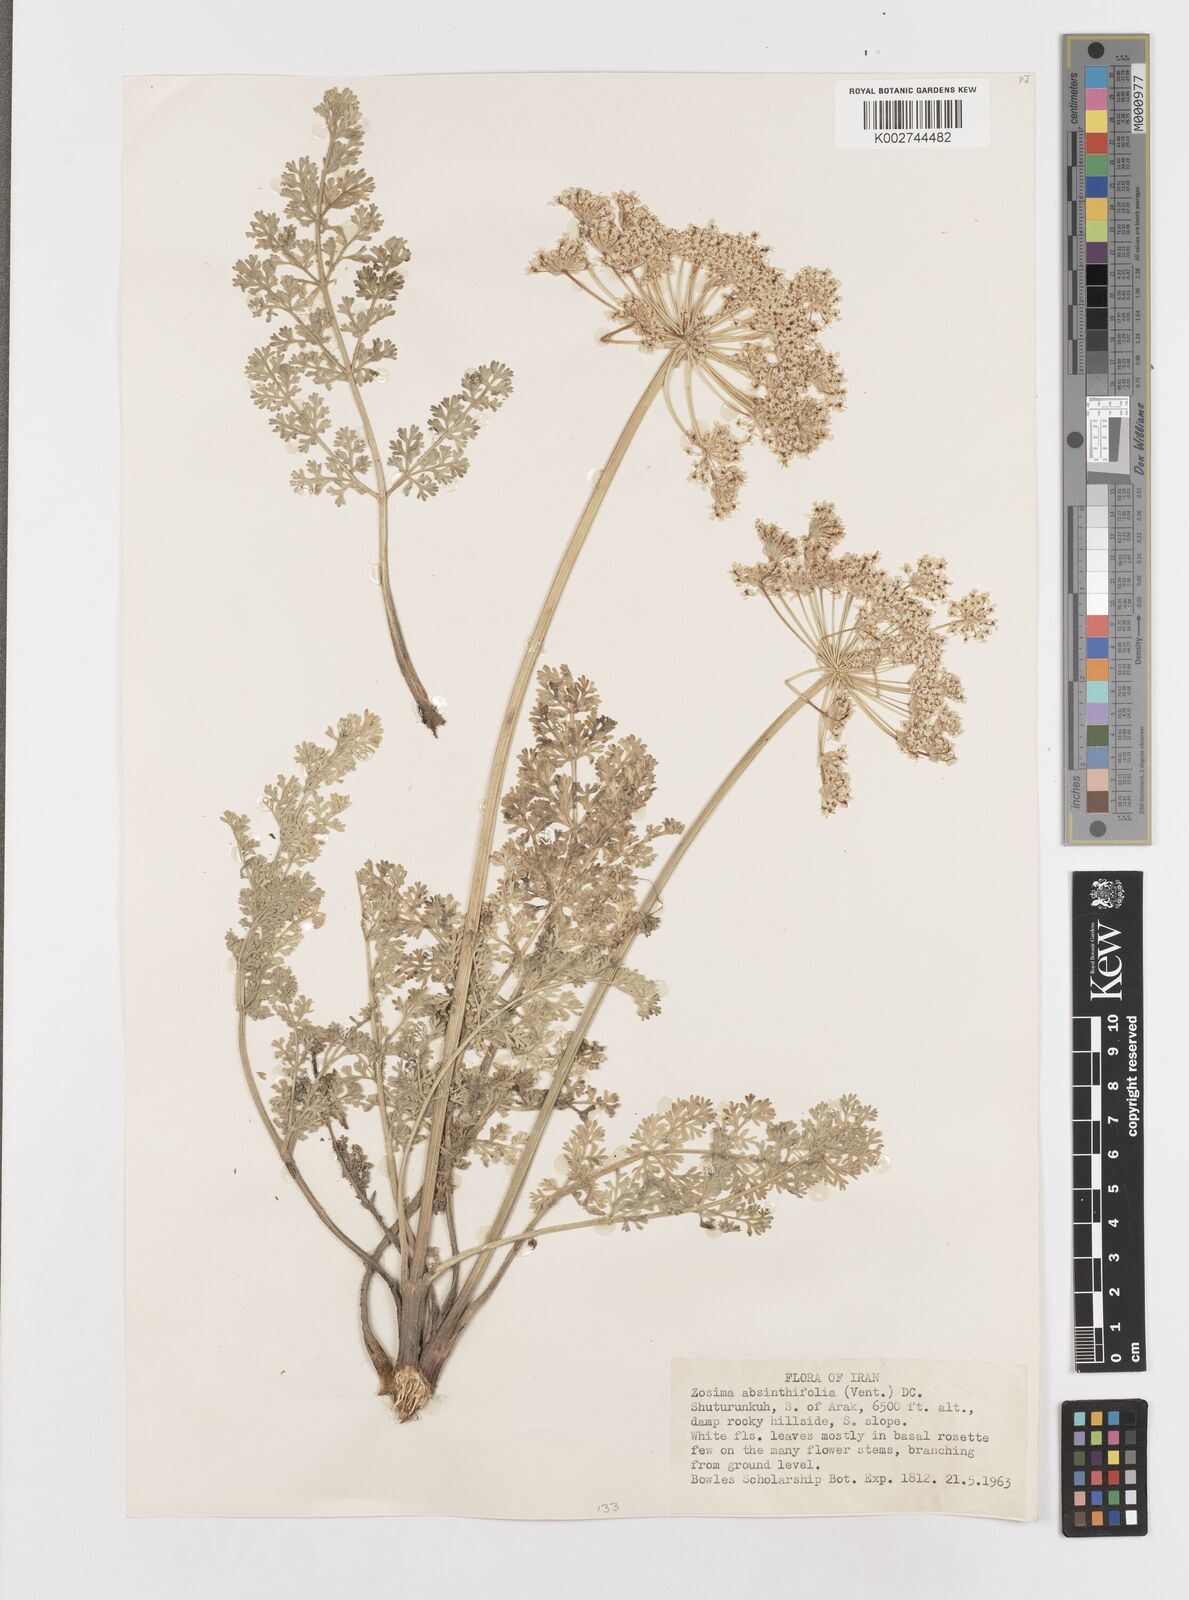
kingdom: Plantae
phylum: Tracheophyta
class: Magnoliopsida
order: Apiales
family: Apiaceae
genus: Zosima
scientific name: Zosima absinthiifolia
